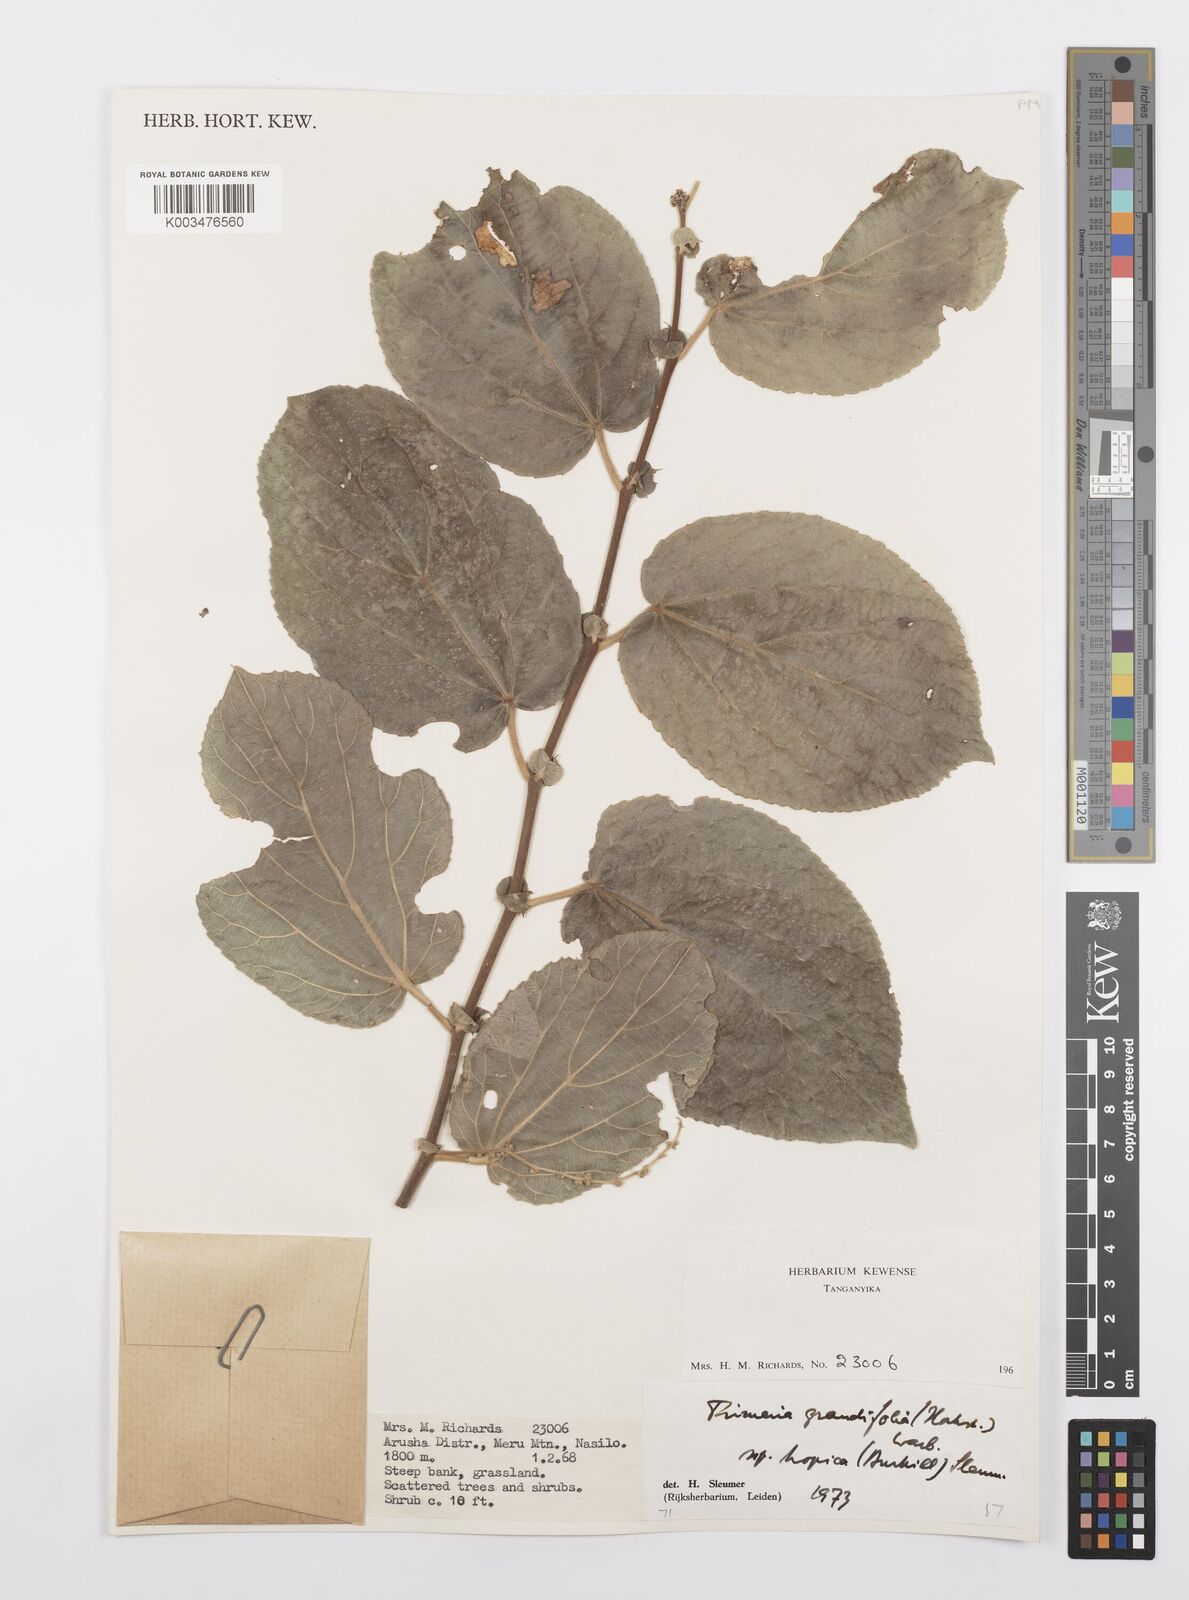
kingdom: Plantae
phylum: Tracheophyta
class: Magnoliopsida
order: Malpighiales
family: Salicaceae
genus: Trimeria
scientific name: Trimeria grandifolia
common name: Wild mulberry
